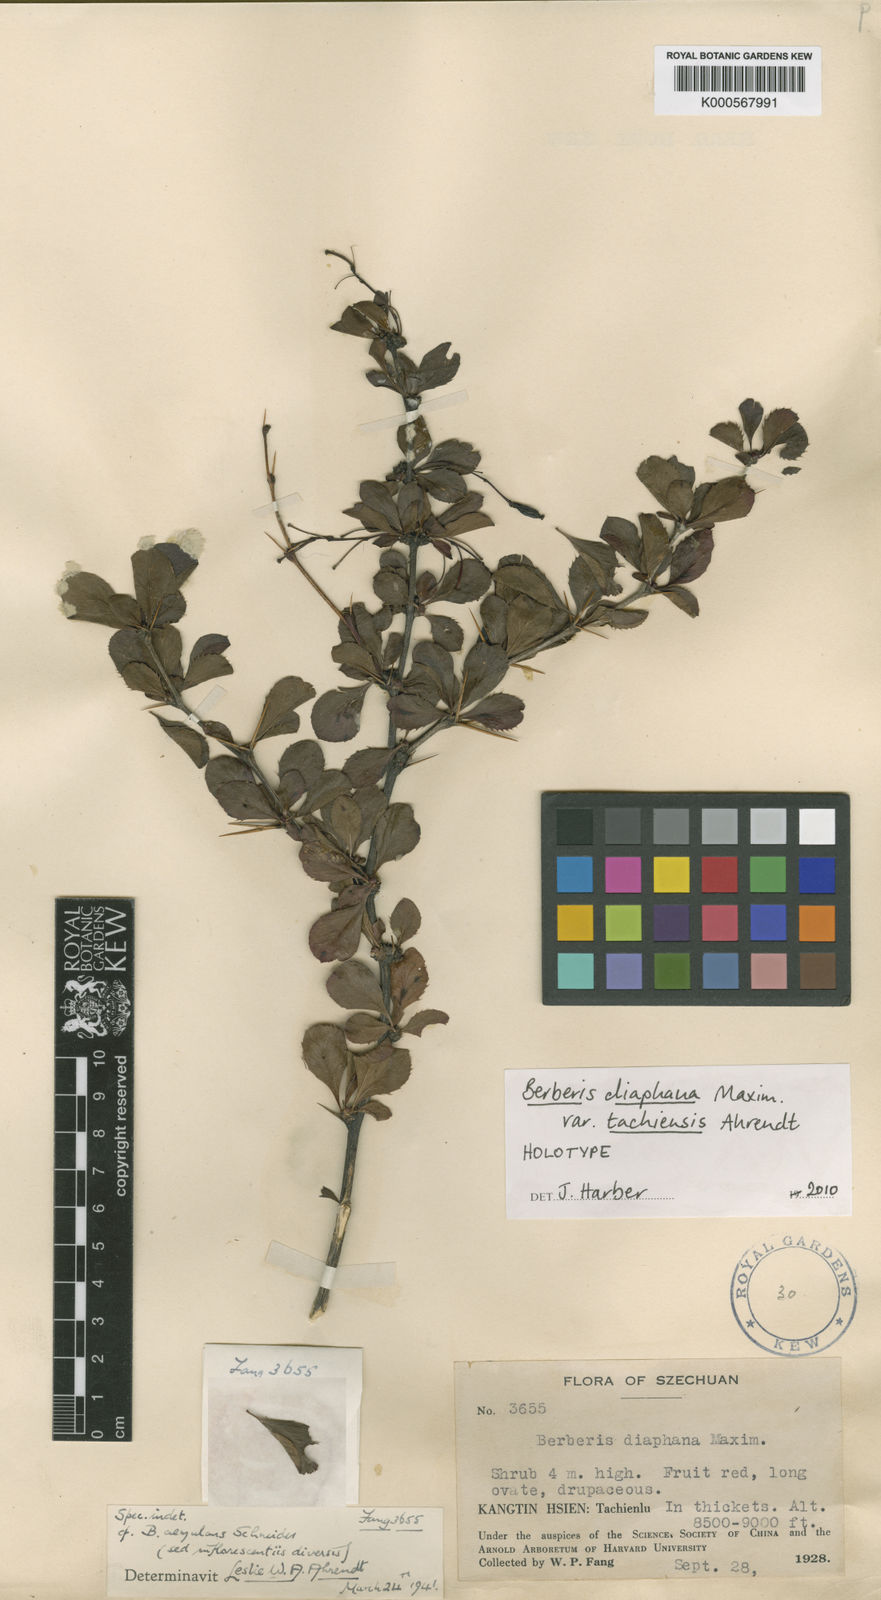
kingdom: Plantae
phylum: Tracheophyta
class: Magnoliopsida
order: Ranunculales
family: Berberidaceae
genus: Berberis
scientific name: Berberis diaphana
